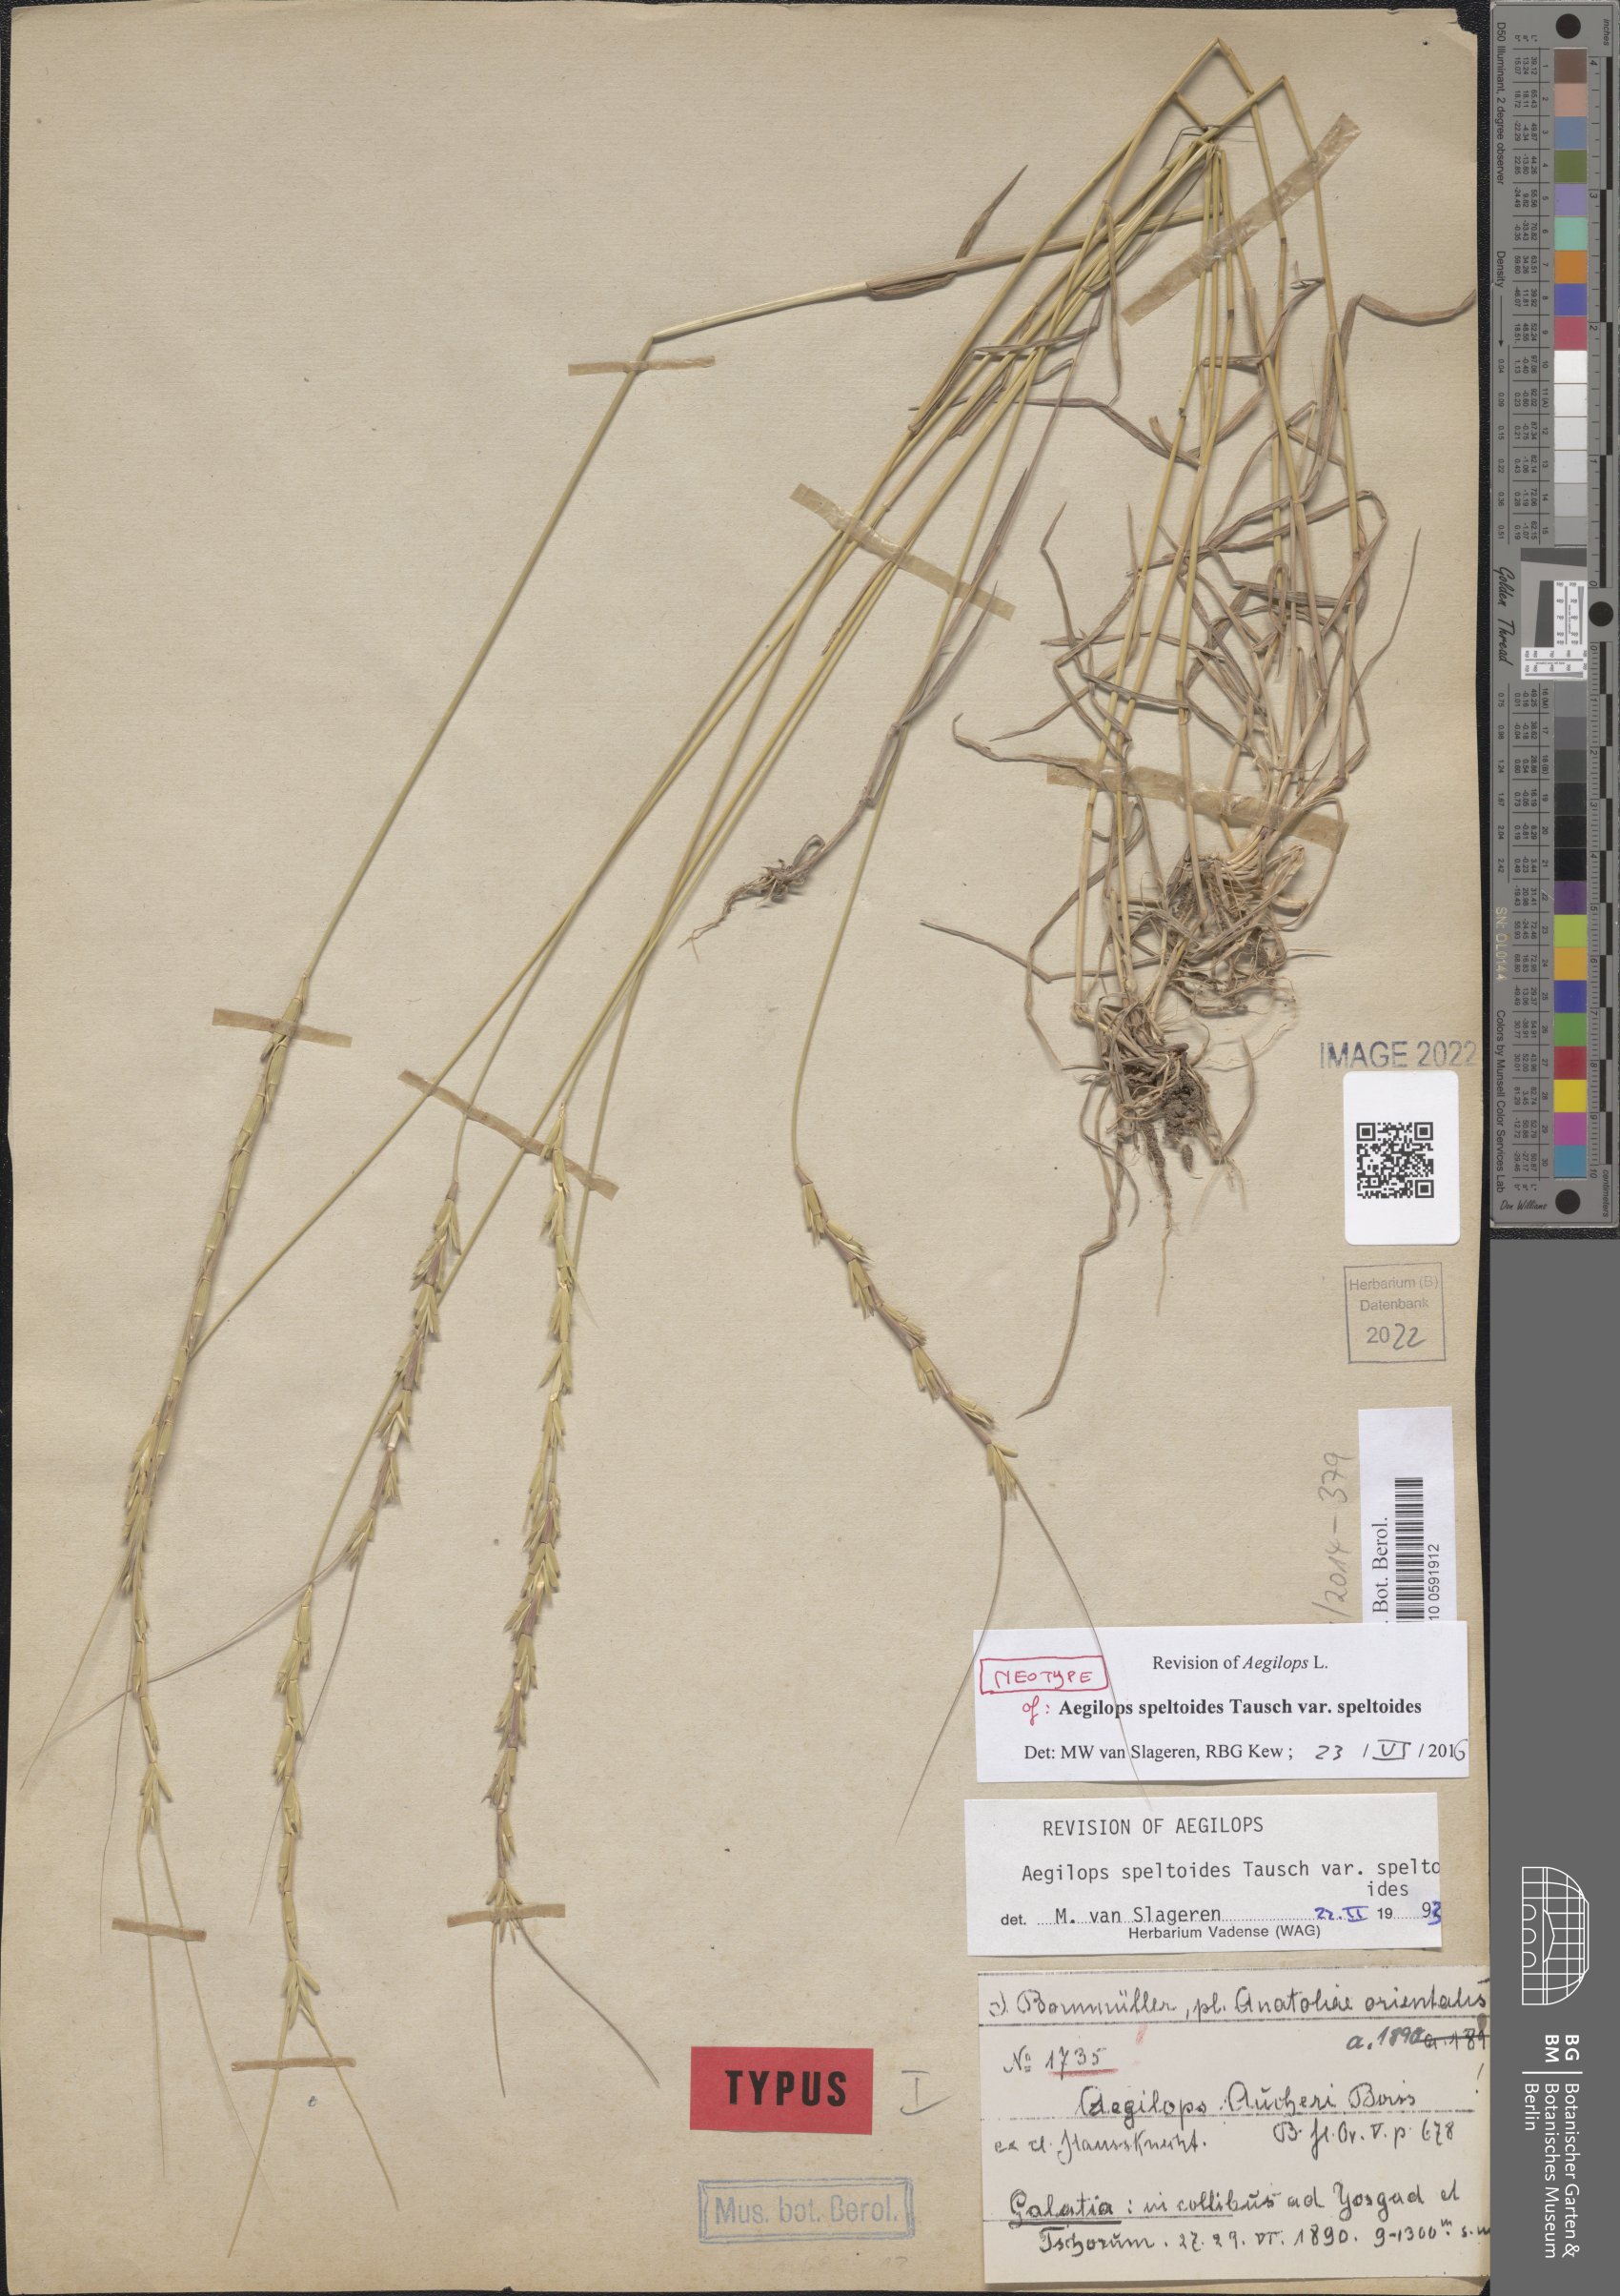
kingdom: Plantae
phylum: Tracheophyta
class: Liliopsida
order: Poales
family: Poaceae
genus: Aegilops
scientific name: Aegilops speltoides
